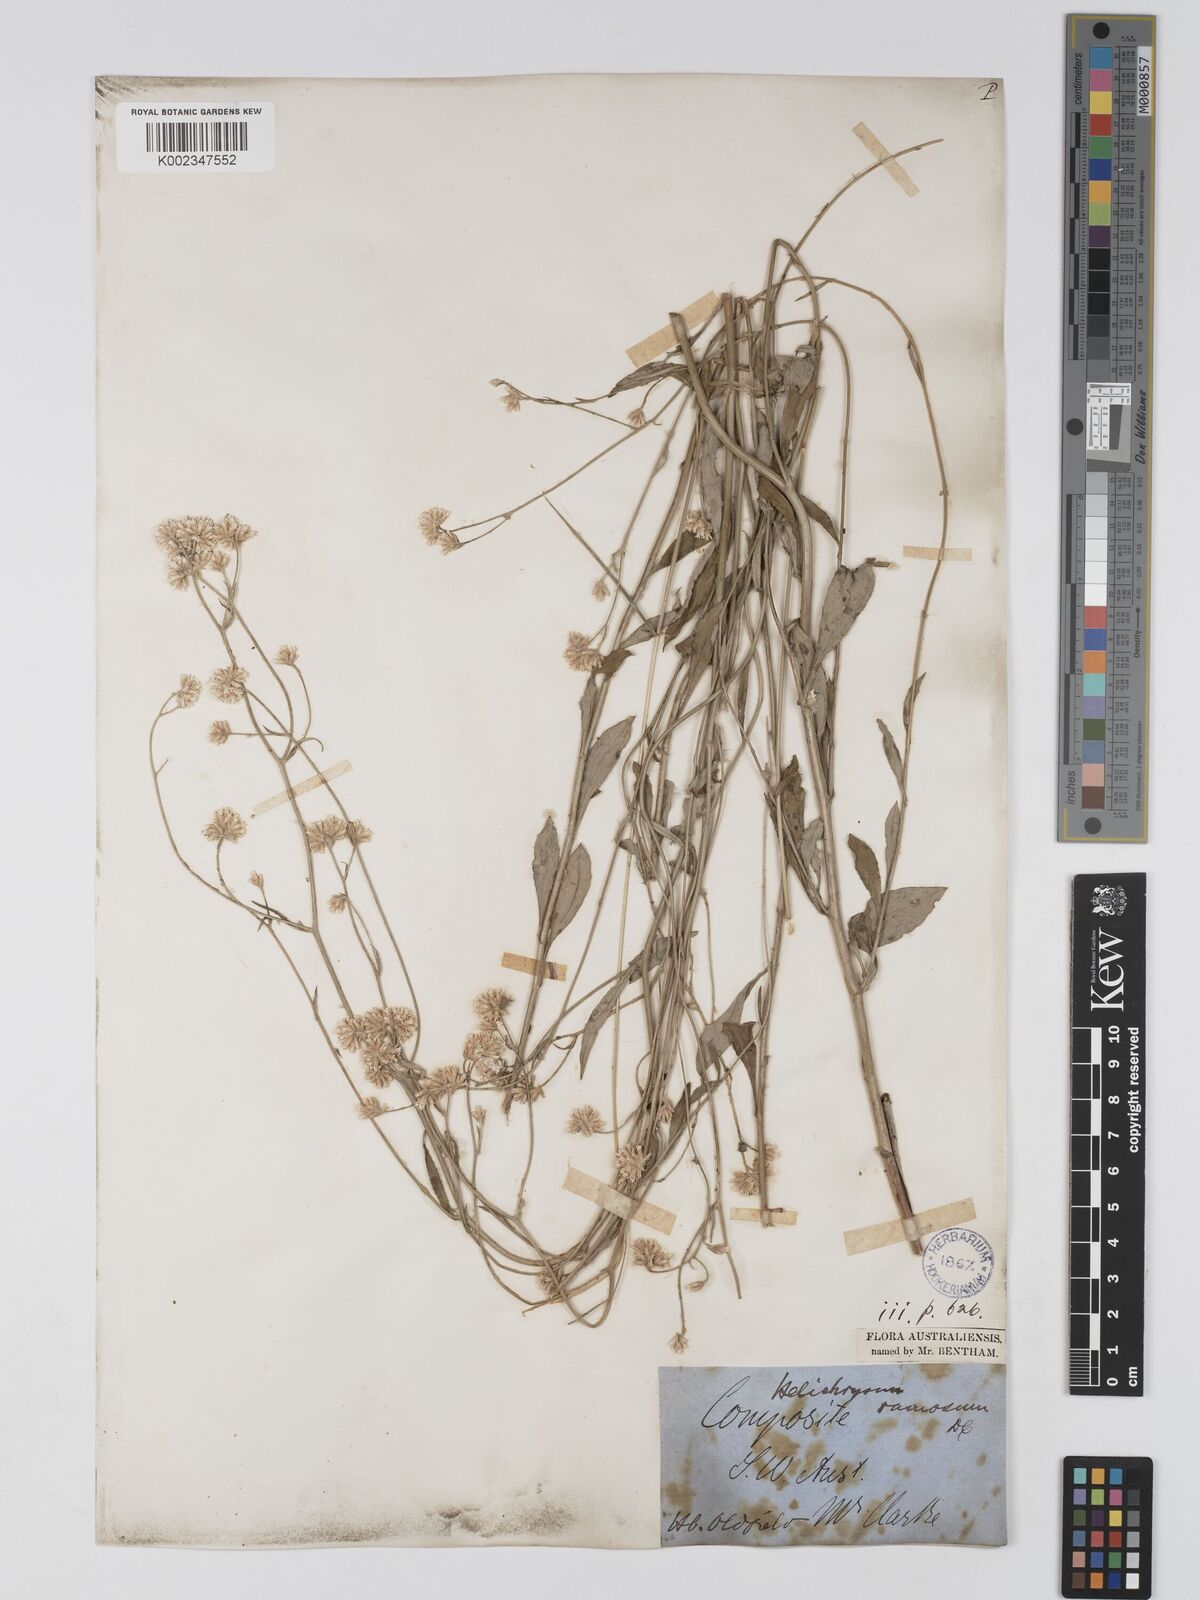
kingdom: Plantae
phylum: Tracheophyta
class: Magnoliopsida
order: Asterales
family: Asteraceae
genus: Pithocarpa
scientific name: Pithocarpa ramosa
